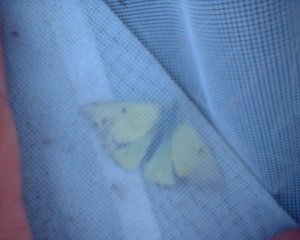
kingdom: Animalia
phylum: Arthropoda
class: Insecta
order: Lepidoptera
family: Pieridae
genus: Colias
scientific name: Colias philodice
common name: Clouded Sulphur
